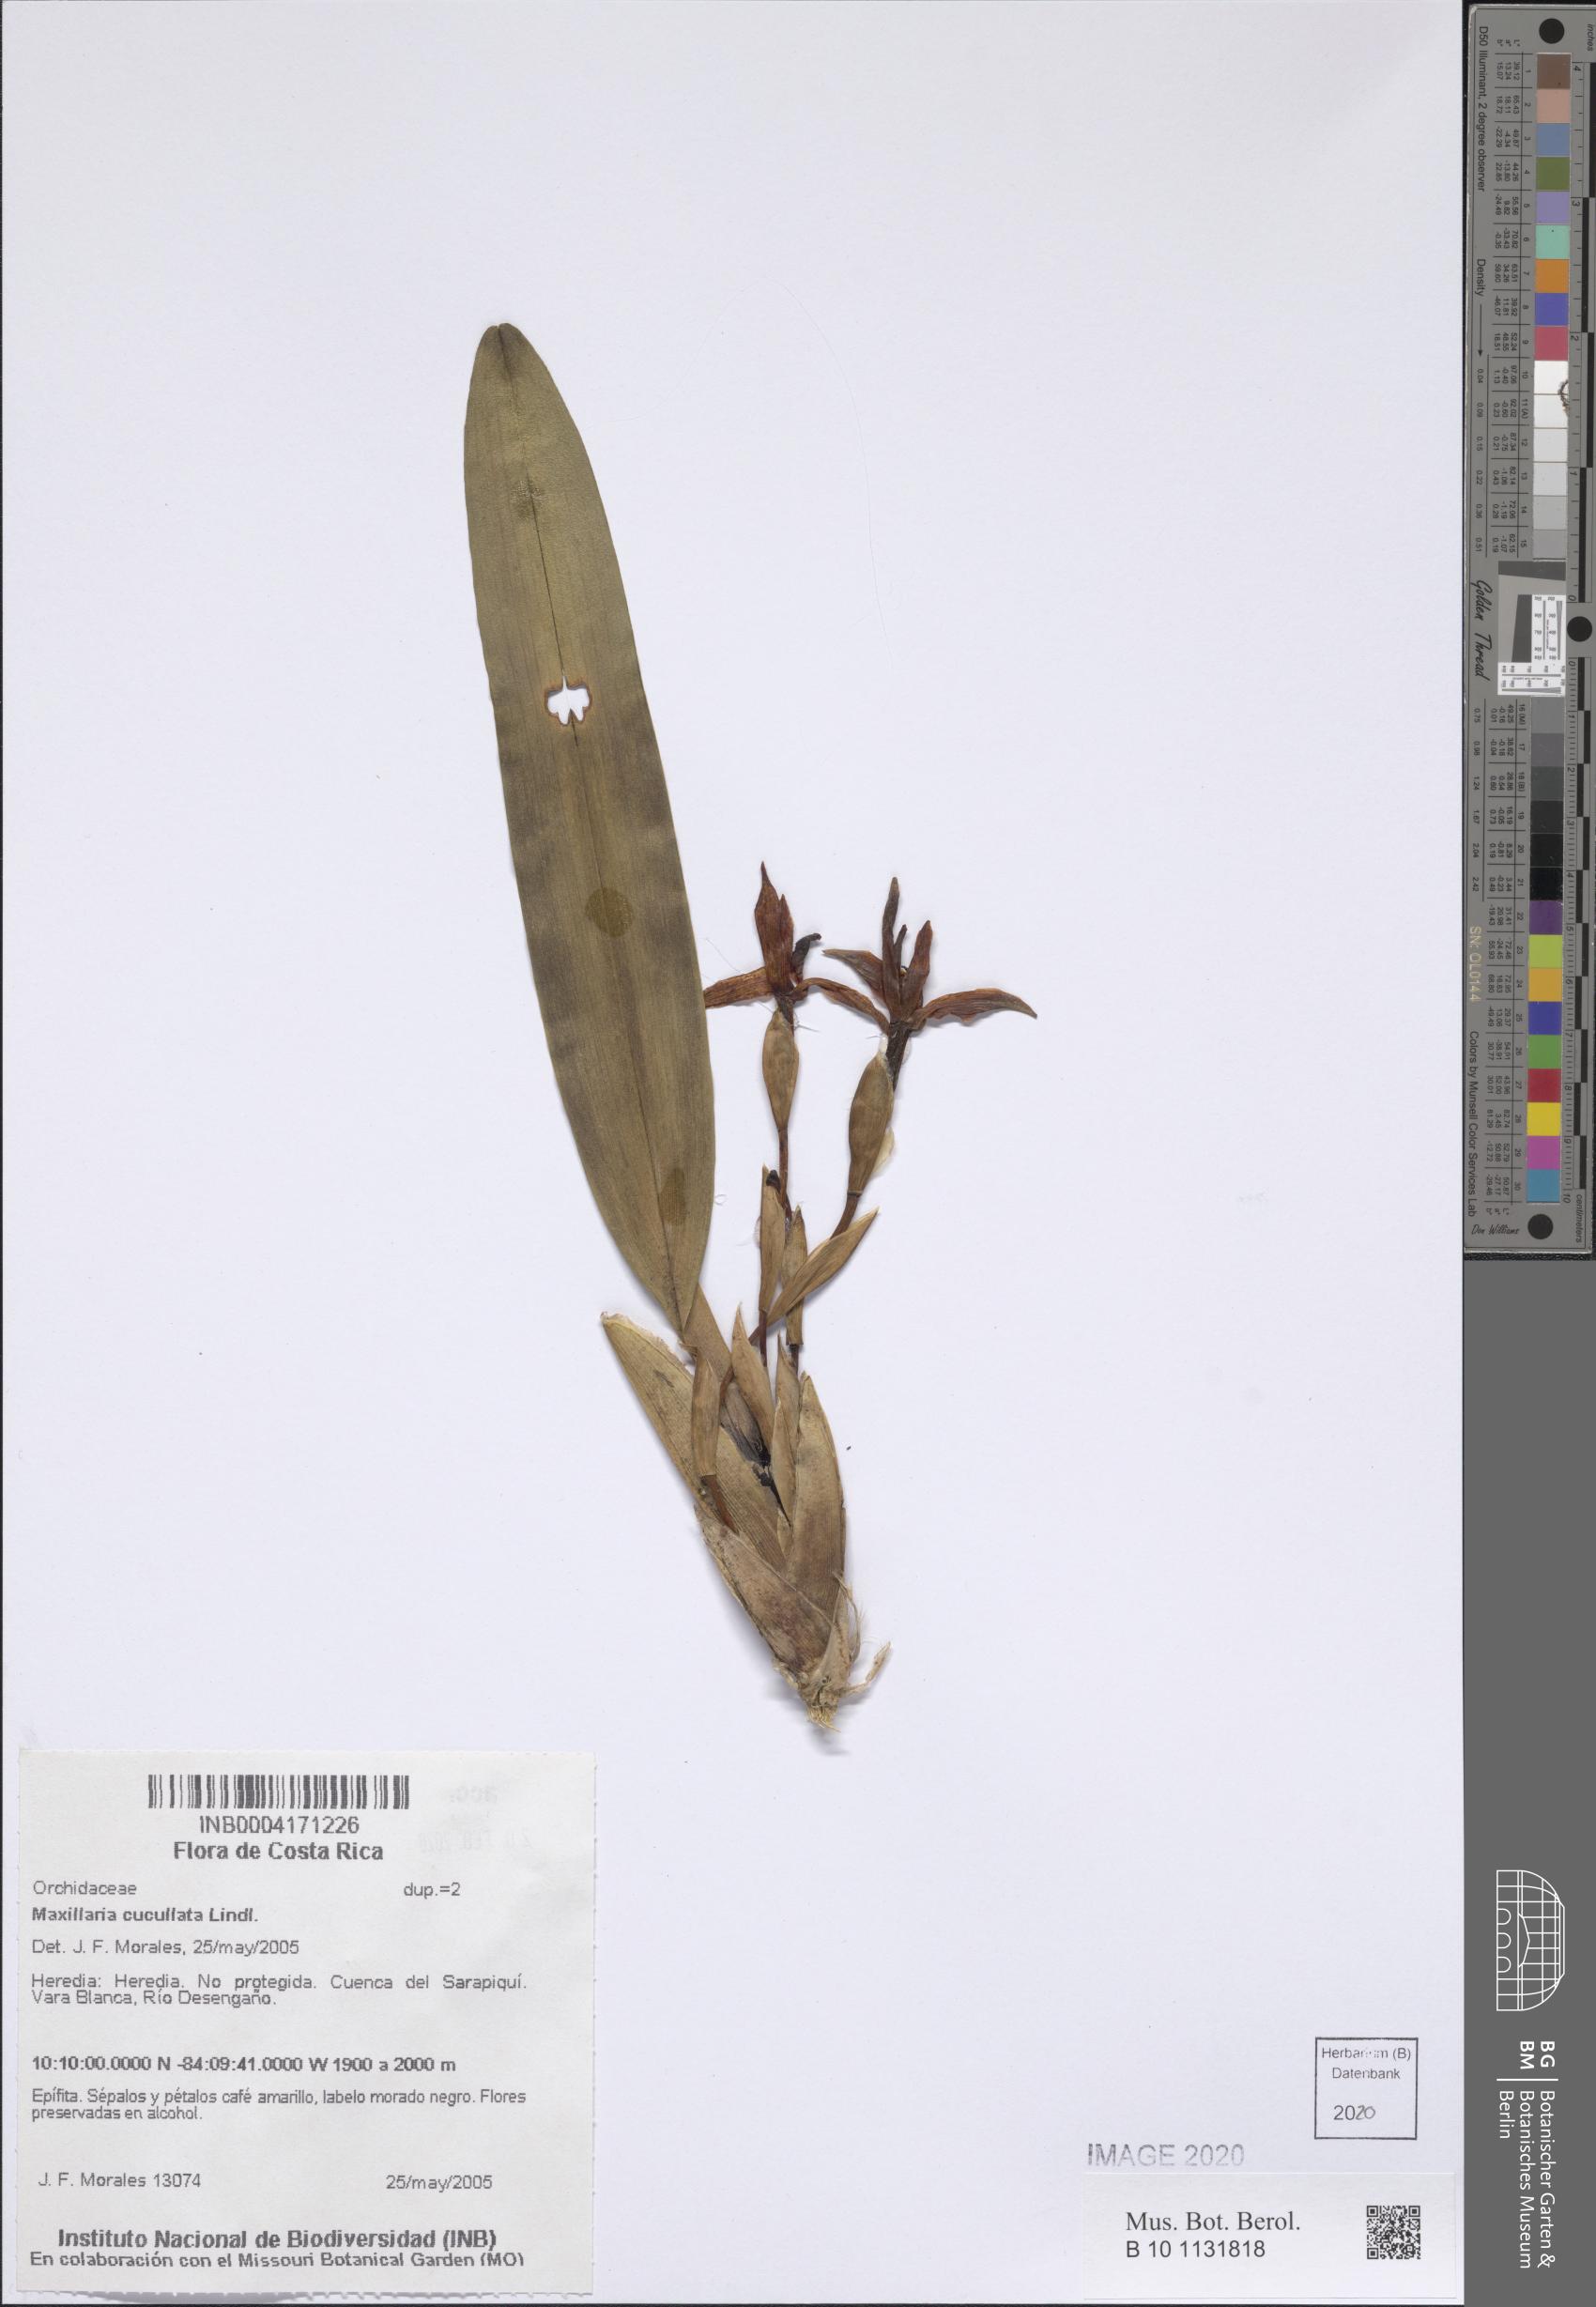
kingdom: Plantae
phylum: Tracheophyta
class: Liliopsida
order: Asparagales
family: Orchidaceae
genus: Maxillaria
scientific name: Maxillaria cucullata
